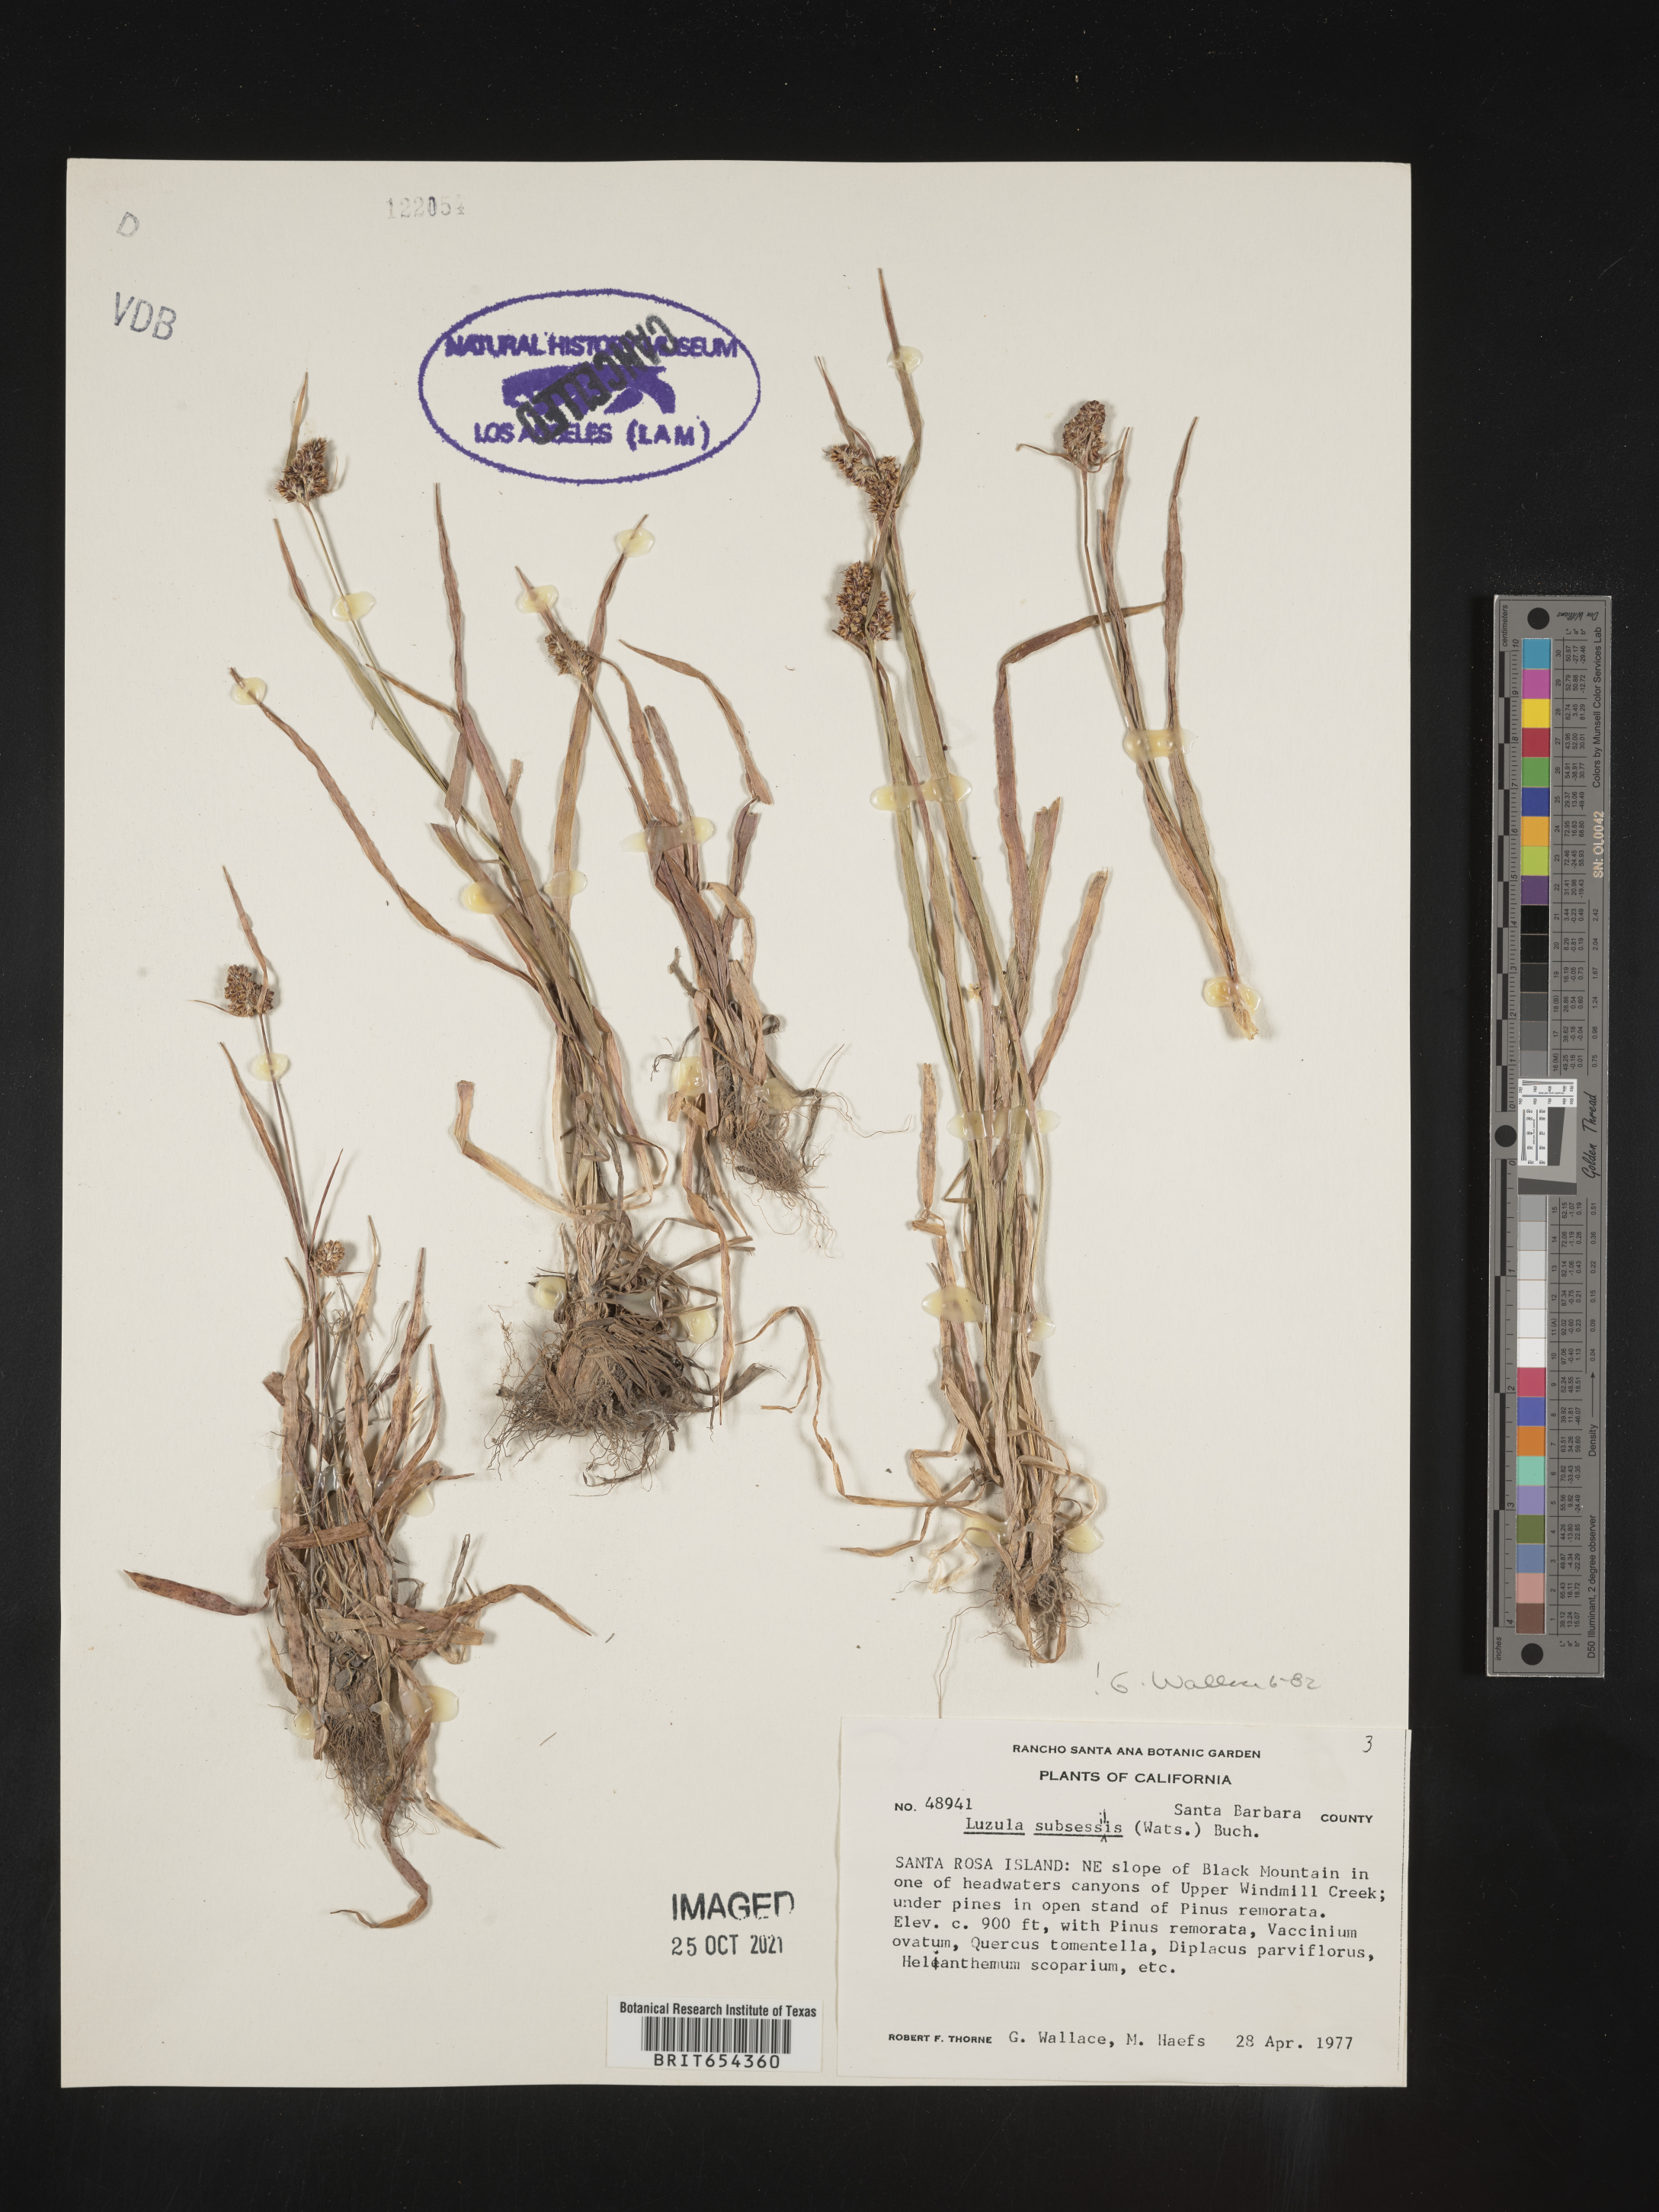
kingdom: Plantae
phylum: Tracheophyta
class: Liliopsida
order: Poales
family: Juncaceae
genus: Luzula
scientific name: Luzula
